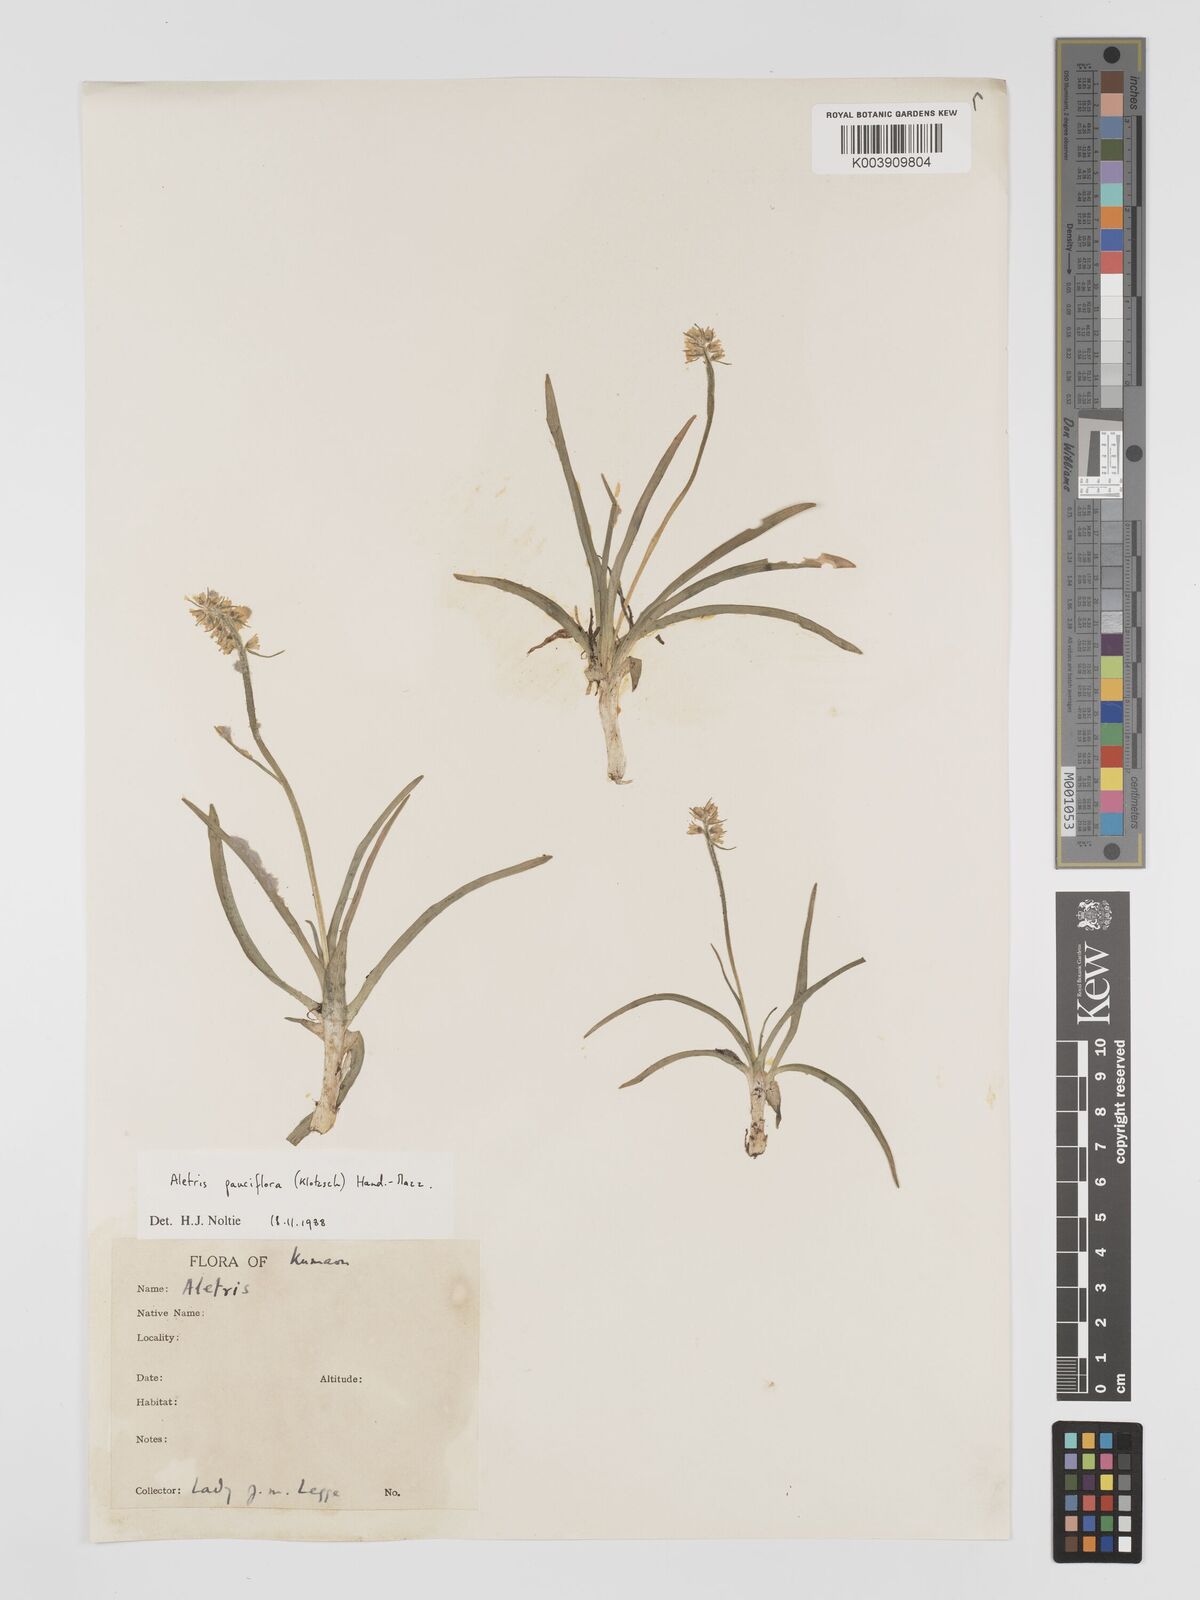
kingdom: Plantae
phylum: Tracheophyta
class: Liliopsida
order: Dioscoreales
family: Nartheciaceae
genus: Aletris
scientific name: Aletris pauciflora
